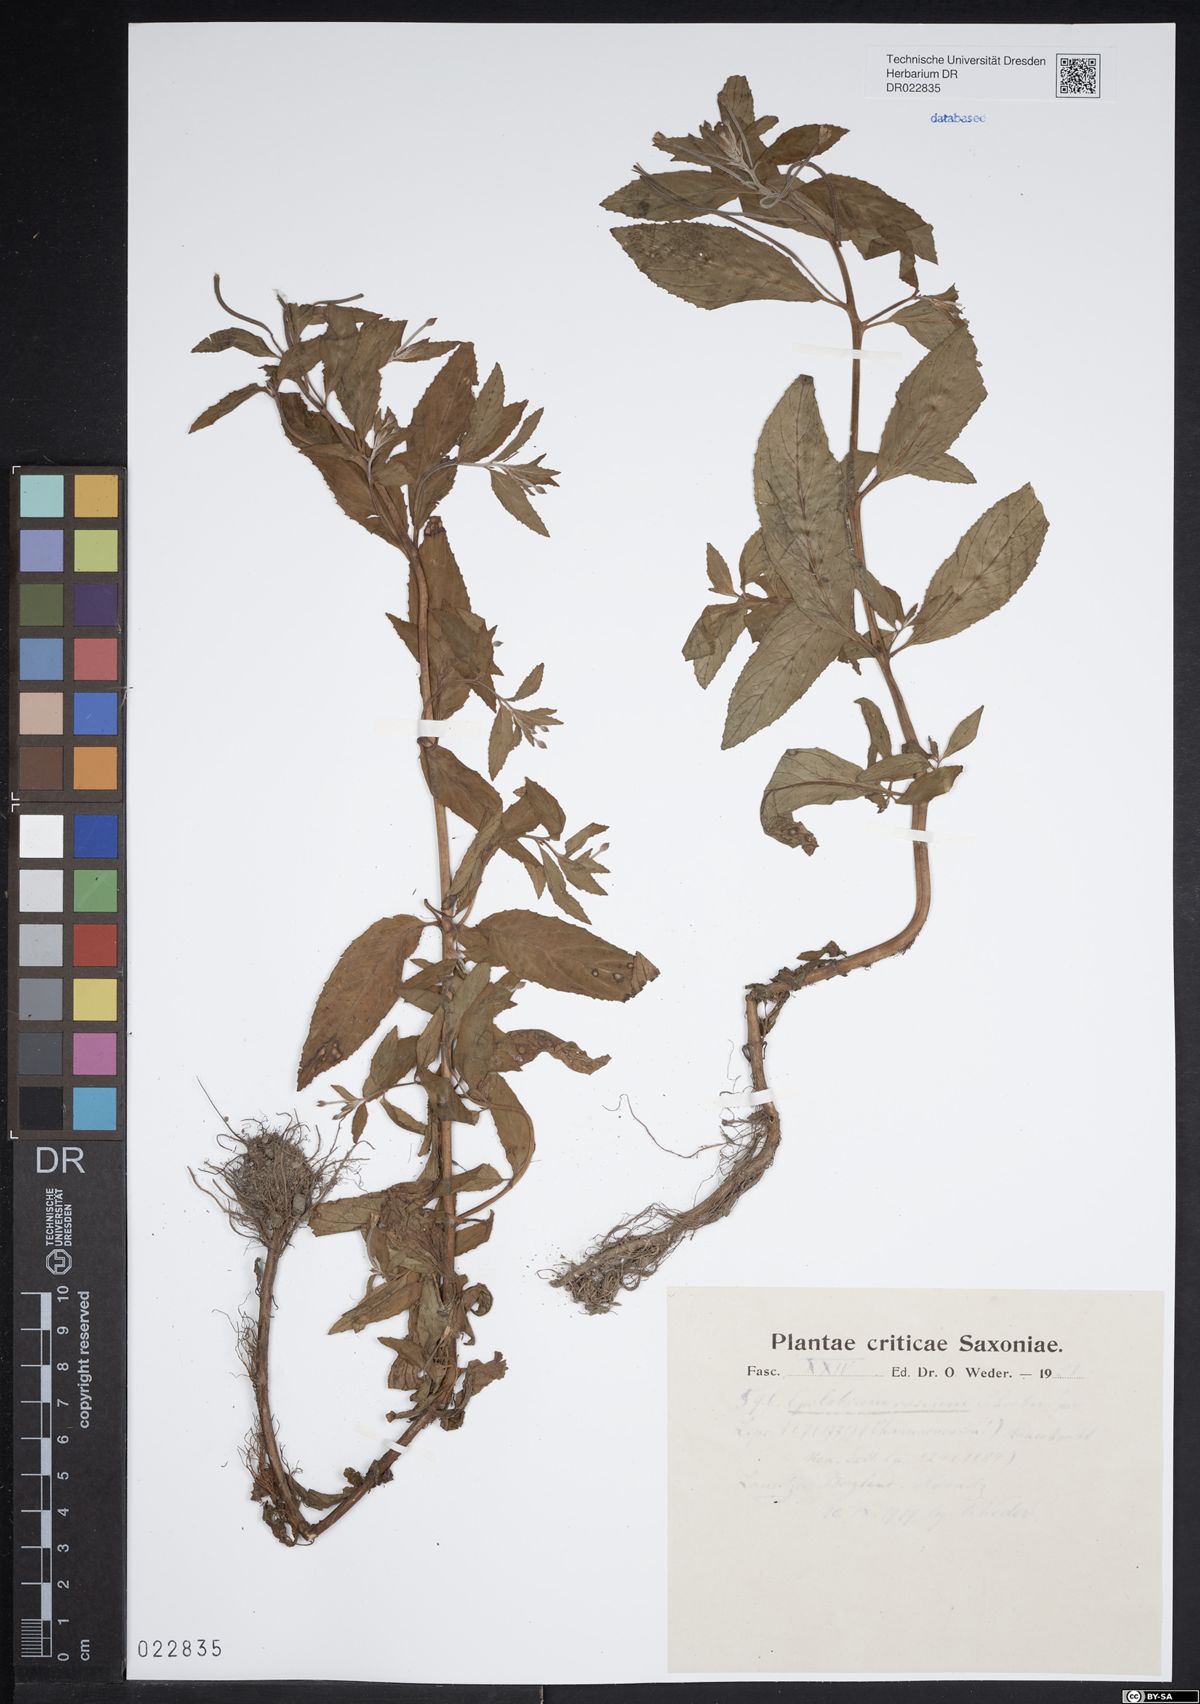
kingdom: Plantae
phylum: Tracheophyta
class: Magnoliopsida
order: Myrtales
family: Onagraceae
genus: Epilobium
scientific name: Epilobium roseum
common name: Pale willowherb
